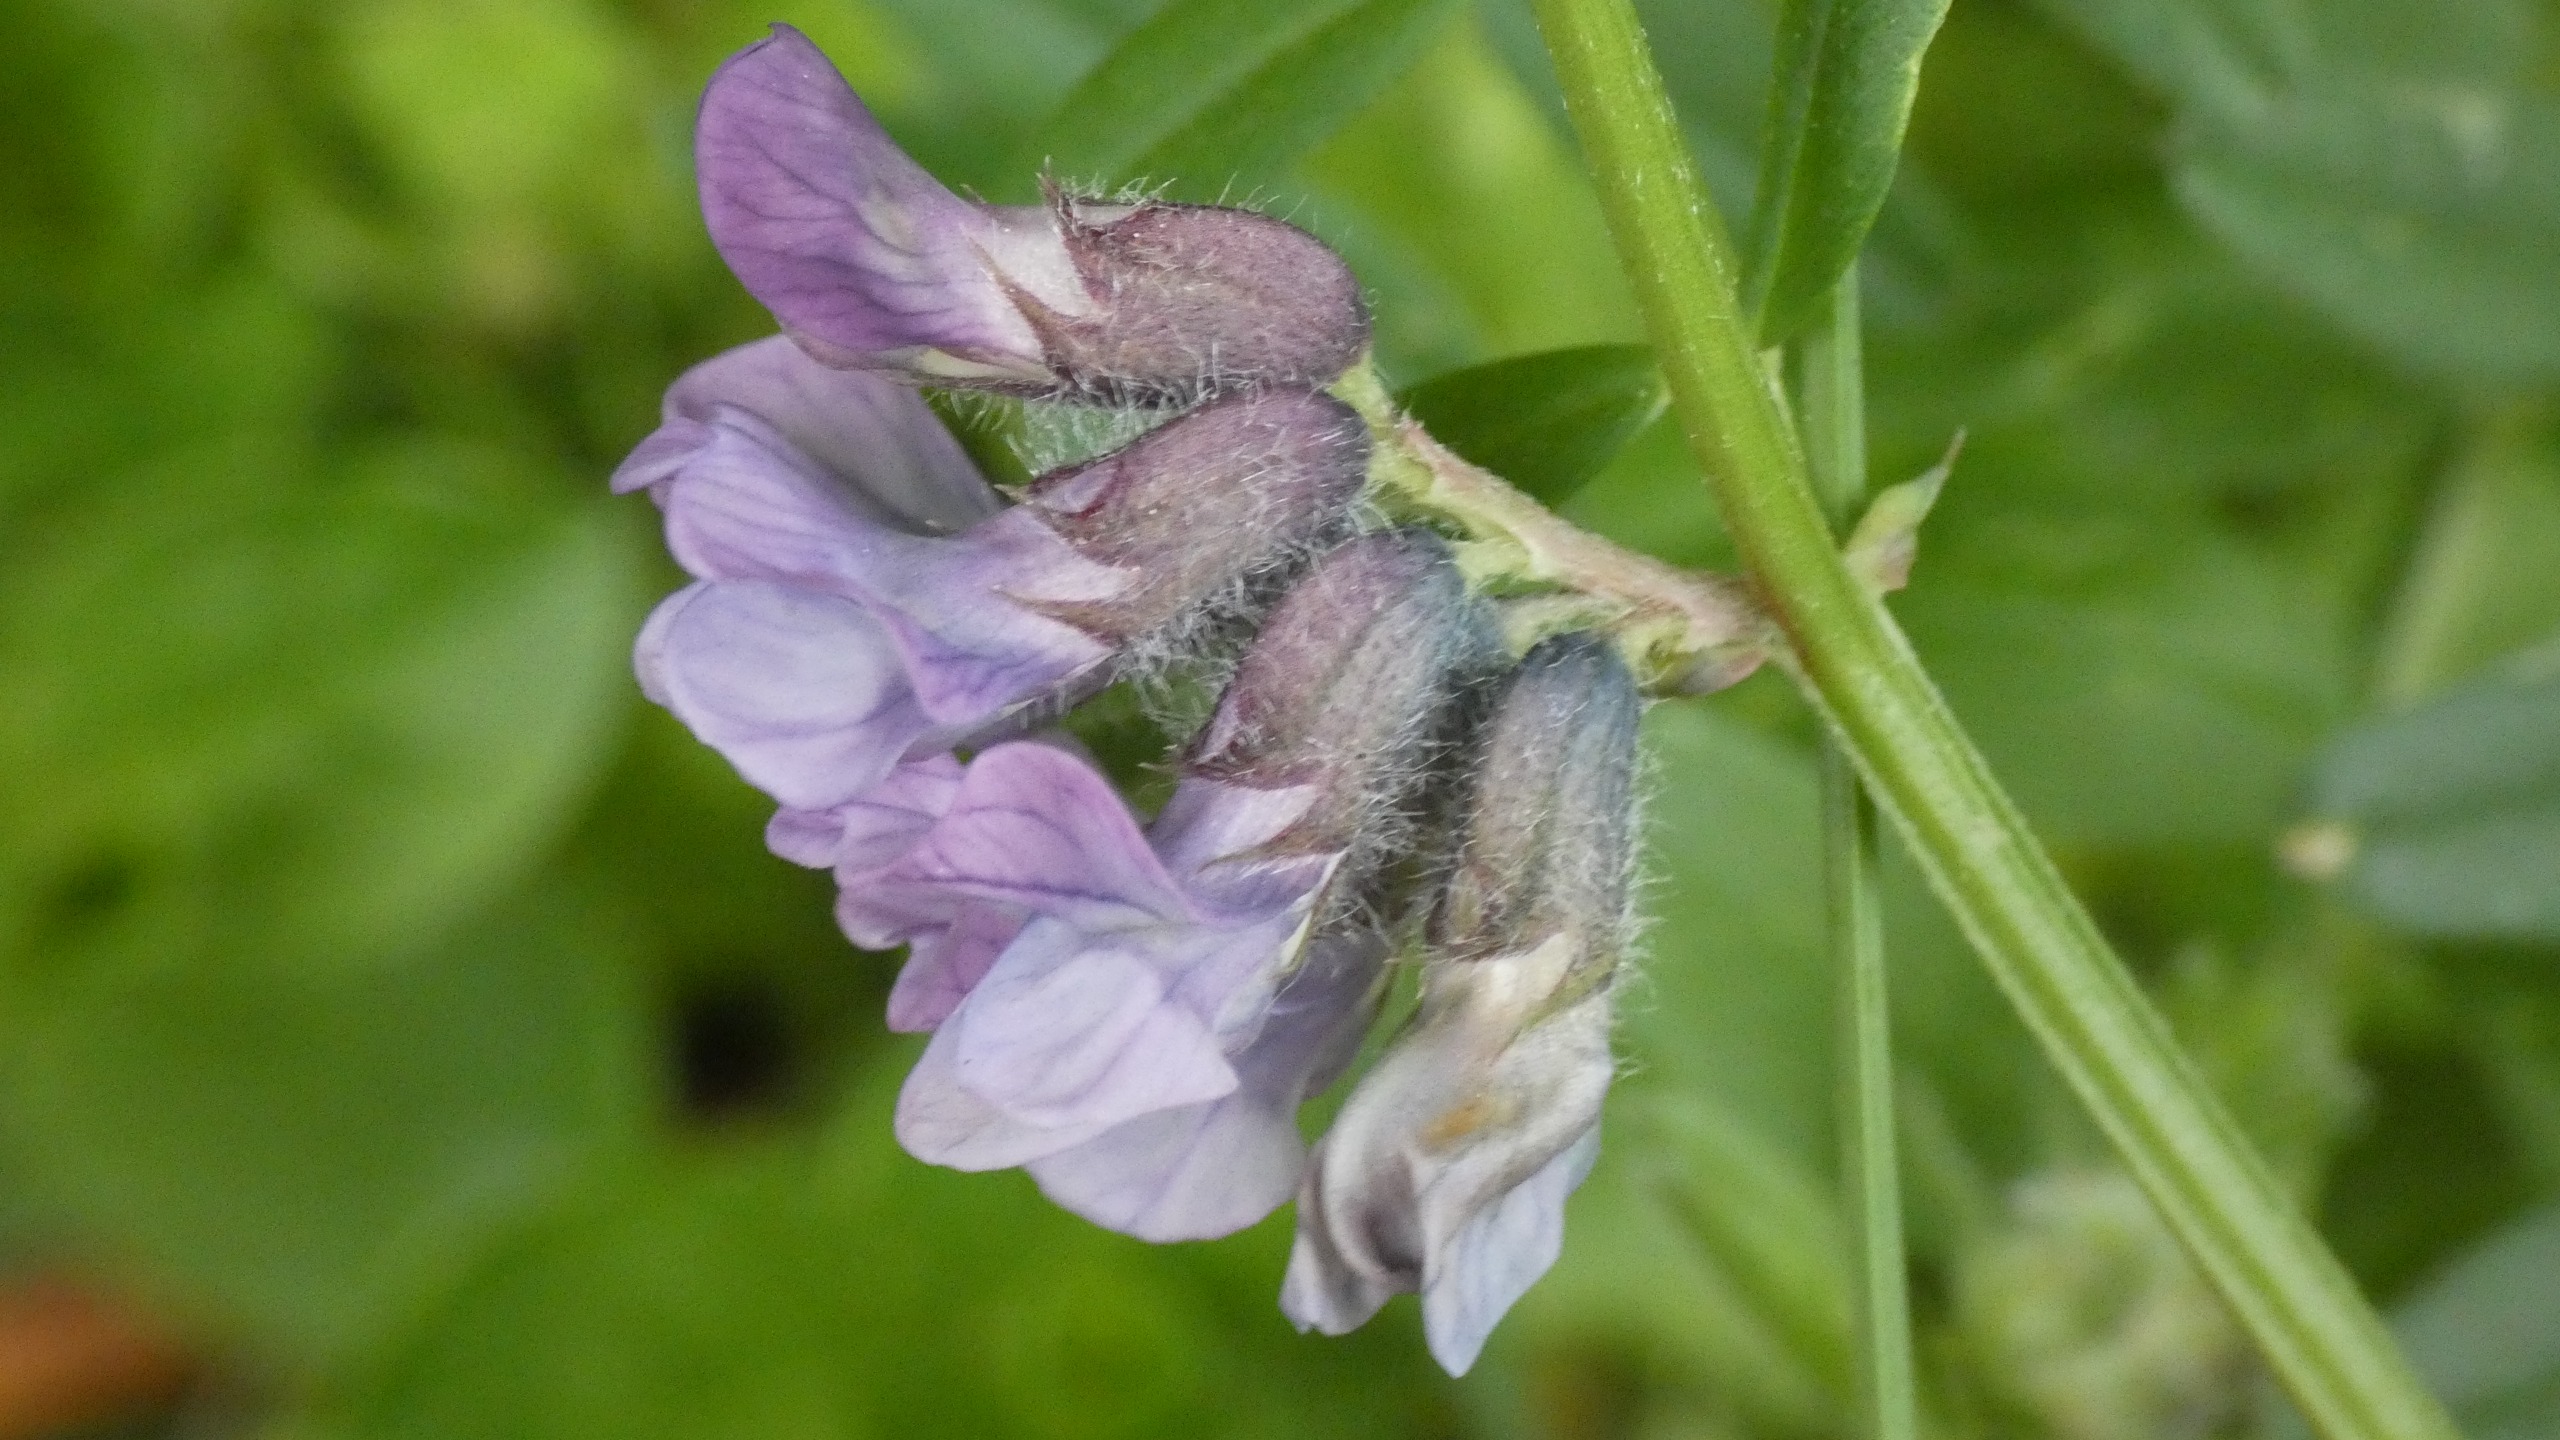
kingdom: Plantae
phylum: Tracheophyta
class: Magnoliopsida
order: Fabales
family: Fabaceae
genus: Vicia
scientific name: Vicia sepium
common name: Gærde-vikke
